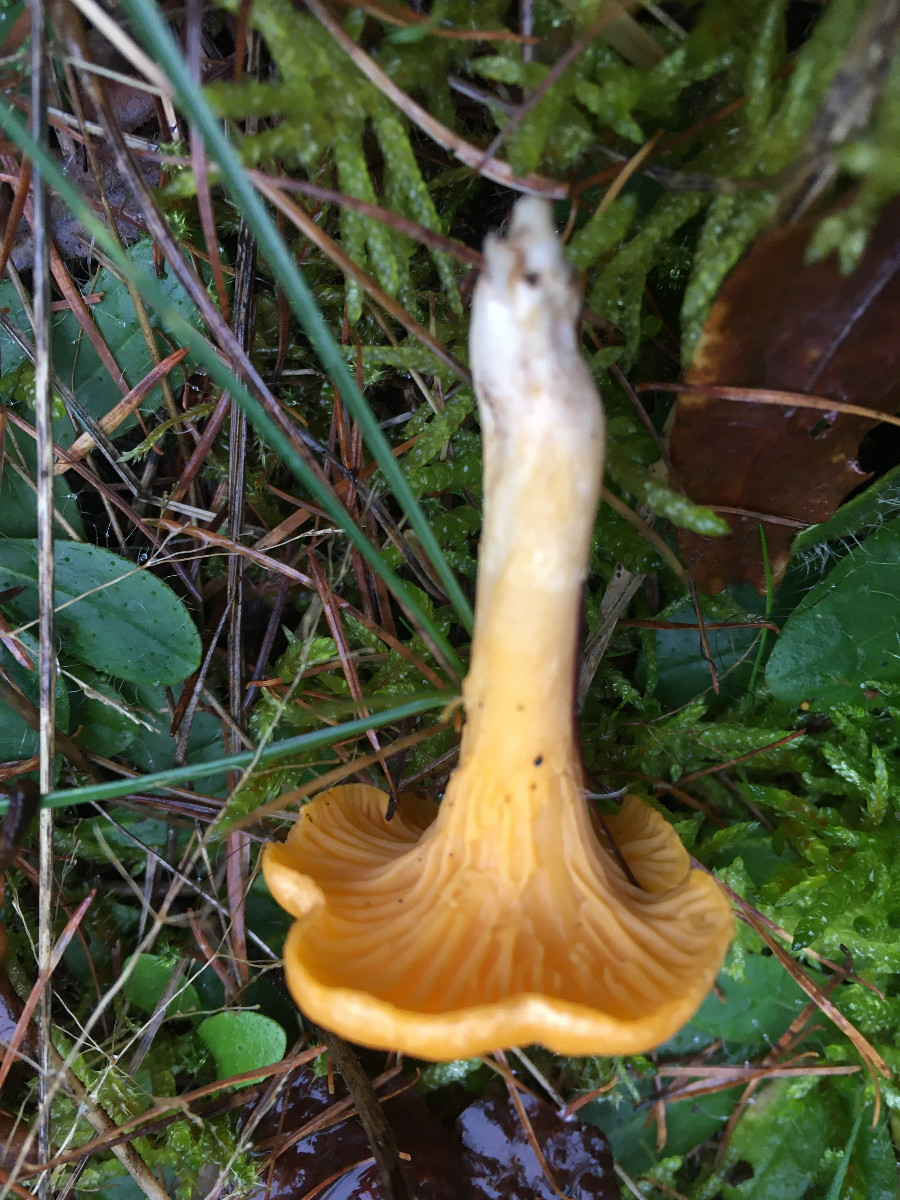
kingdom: Fungi
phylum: Basidiomycota
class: Agaricomycetes
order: Cantharellales
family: Hydnaceae
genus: Cantharellus
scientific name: Cantharellus cibarius
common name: almindelig kantarel
